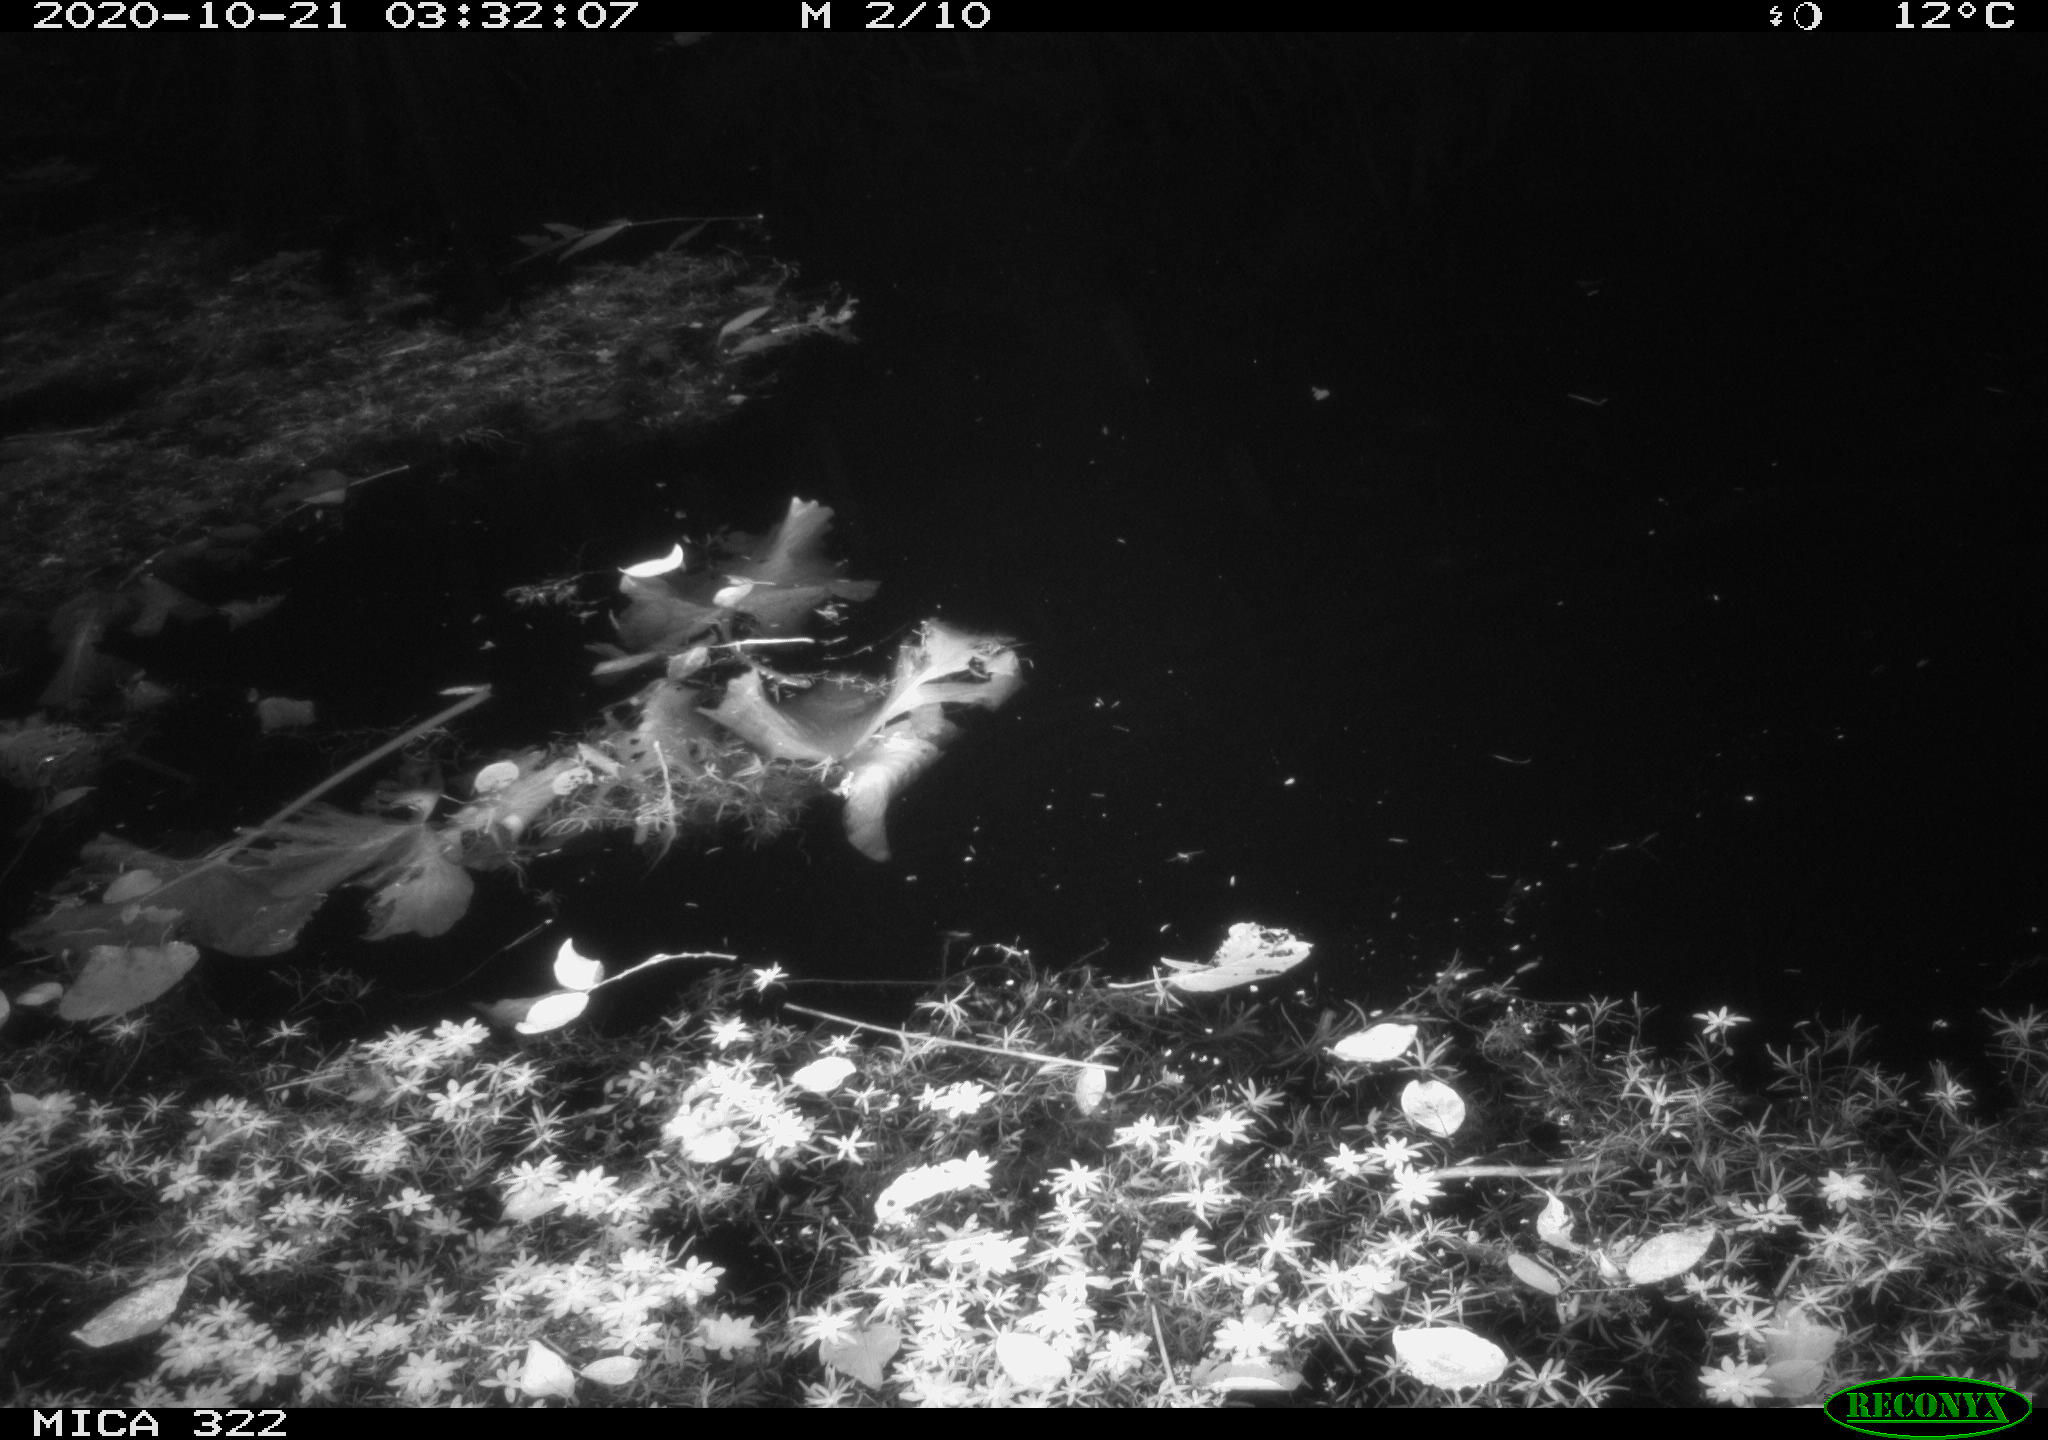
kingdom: Animalia
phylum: Chordata
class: Mammalia
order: Rodentia
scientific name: Rodentia
